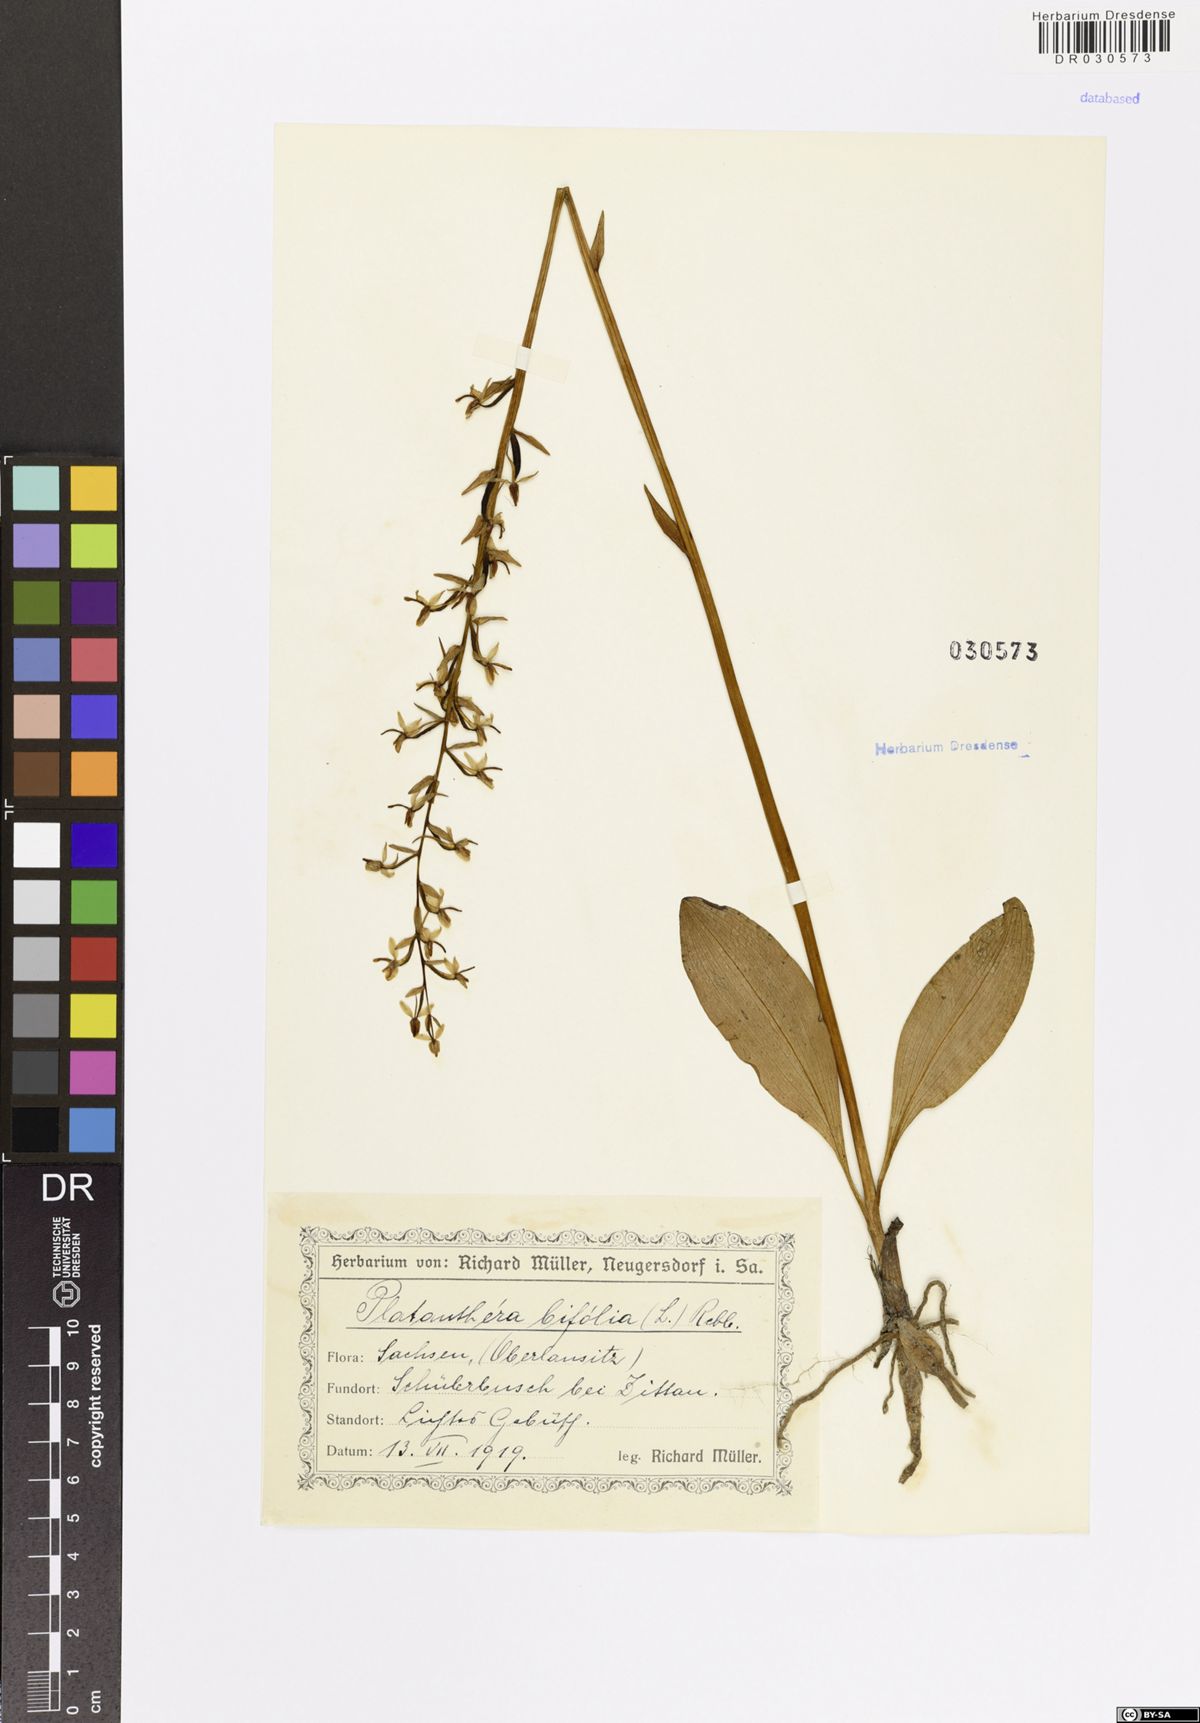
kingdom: Plantae
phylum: Tracheophyta
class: Liliopsida
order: Asparagales
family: Orchidaceae
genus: Platanthera
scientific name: Platanthera bifolia
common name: Lesser butterfly-orchid
